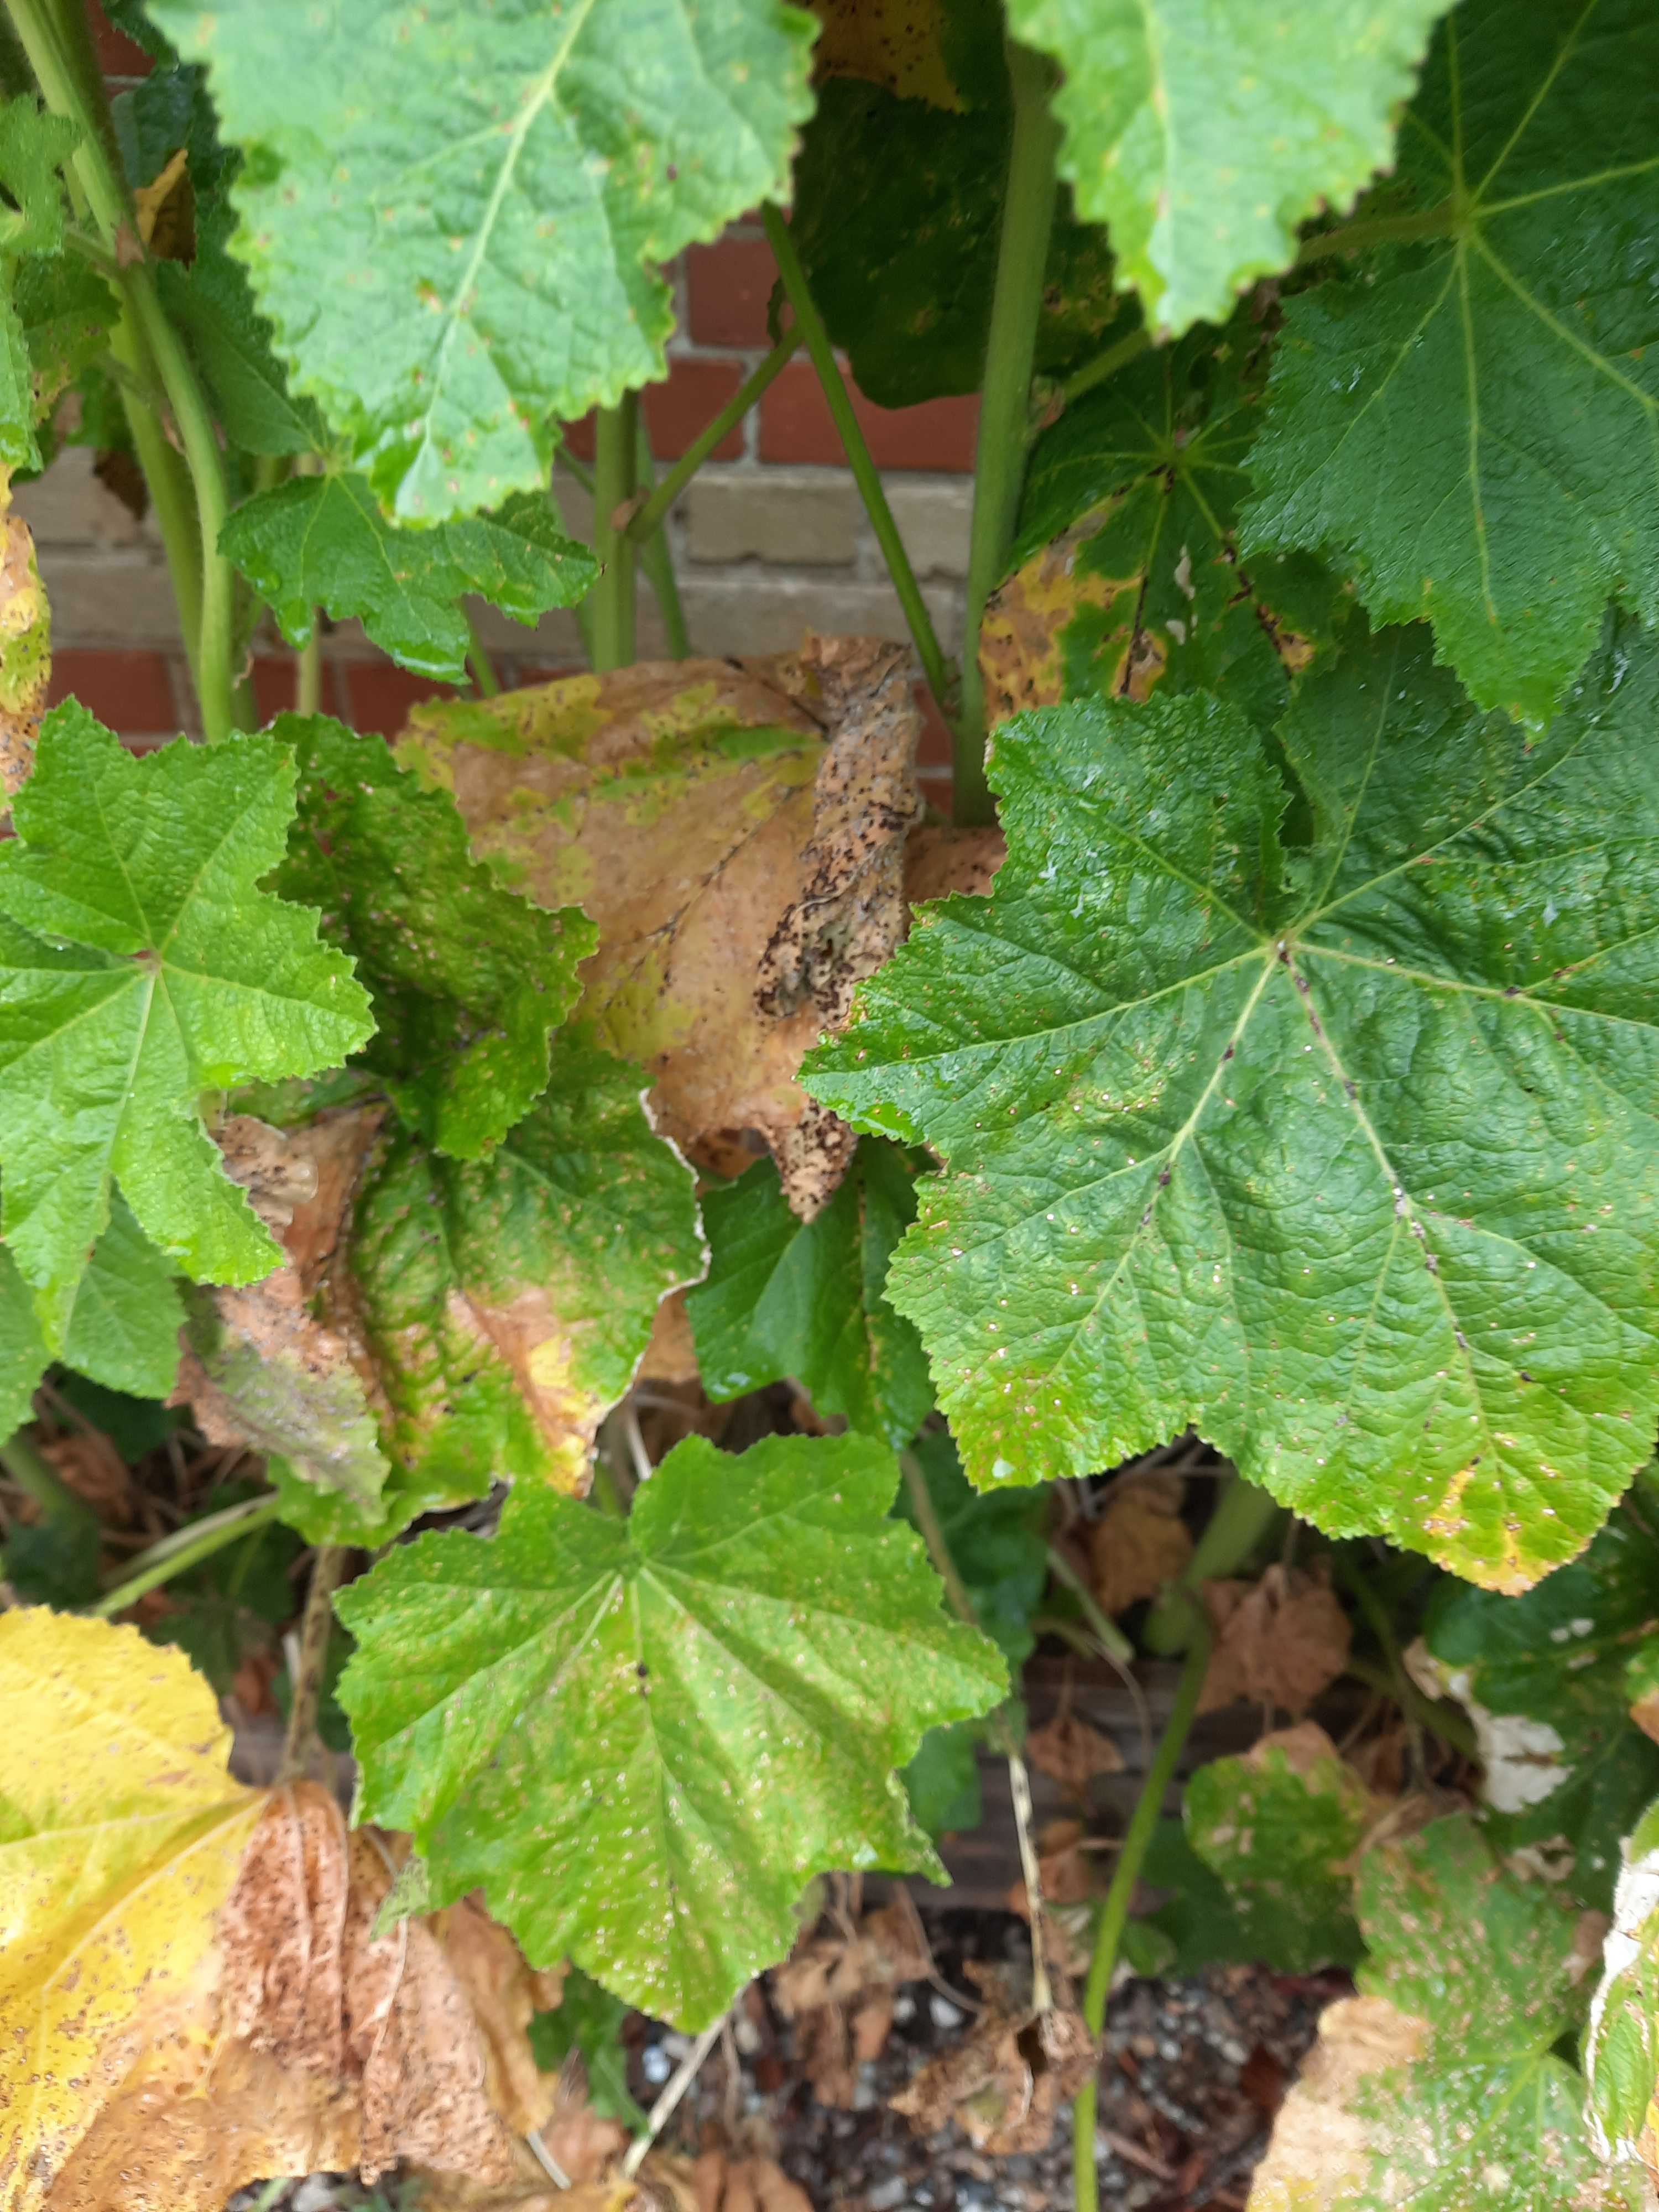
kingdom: Fungi
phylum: Basidiomycota
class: Pucciniomycetes
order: Pucciniales
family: Pucciniaceae
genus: Puccinia
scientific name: Puccinia malvacearum
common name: stokrose-tvecellerust
